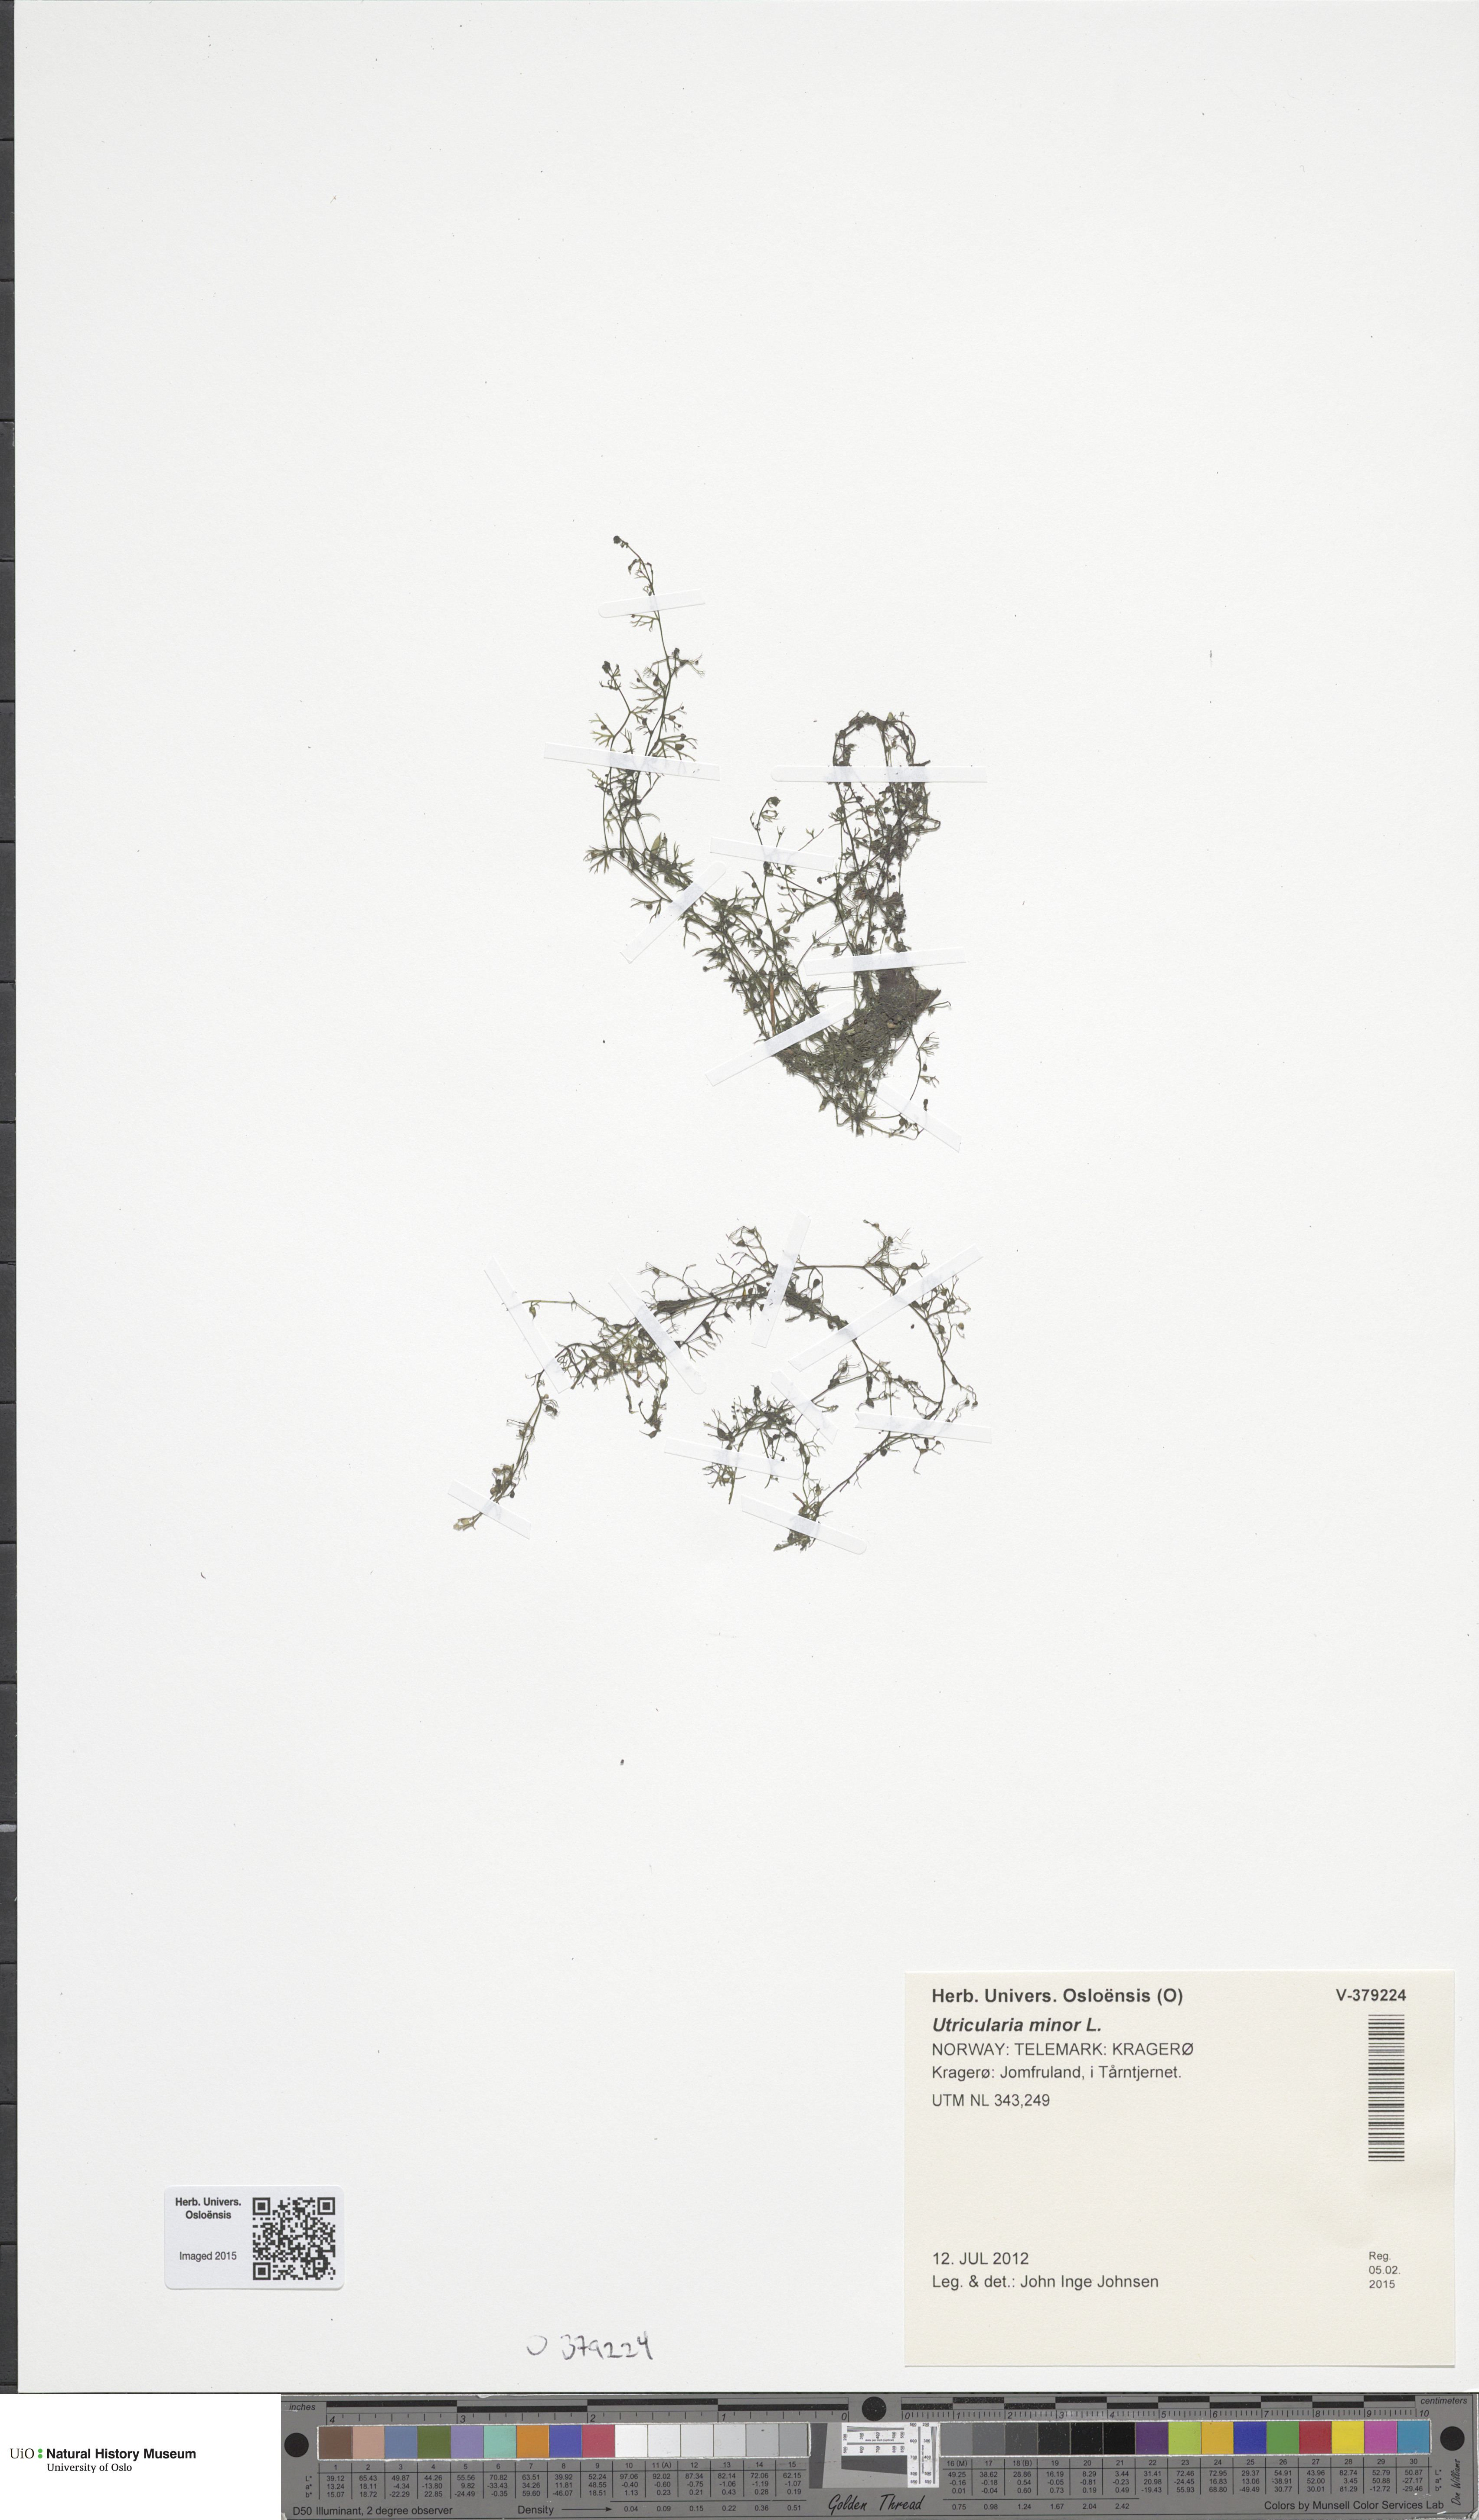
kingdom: Plantae
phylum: Tracheophyta
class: Magnoliopsida
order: Lamiales
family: Lentibulariaceae
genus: Utricularia
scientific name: Utricularia minor
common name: Lesser bladderwort
